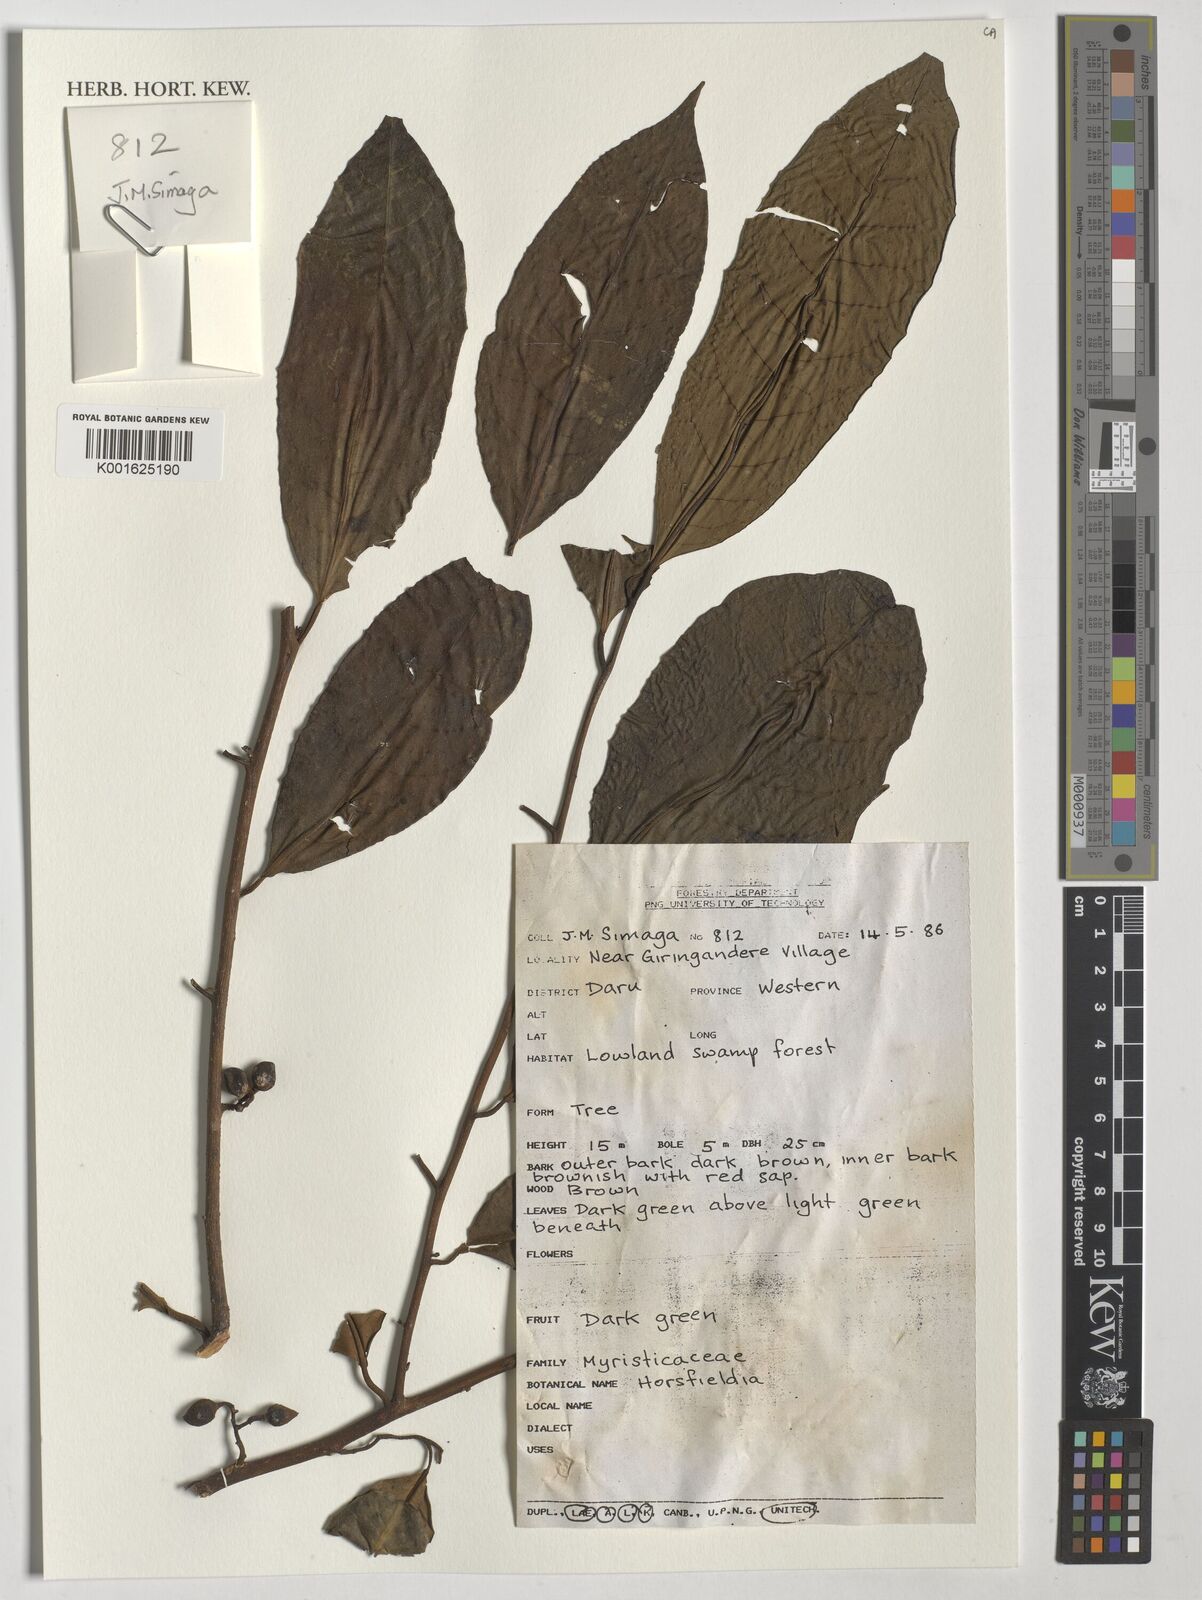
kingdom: Plantae
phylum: Tracheophyta
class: Magnoliopsida
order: Magnoliales
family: Myristicaceae
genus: Horsfieldia
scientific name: Horsfieldia
